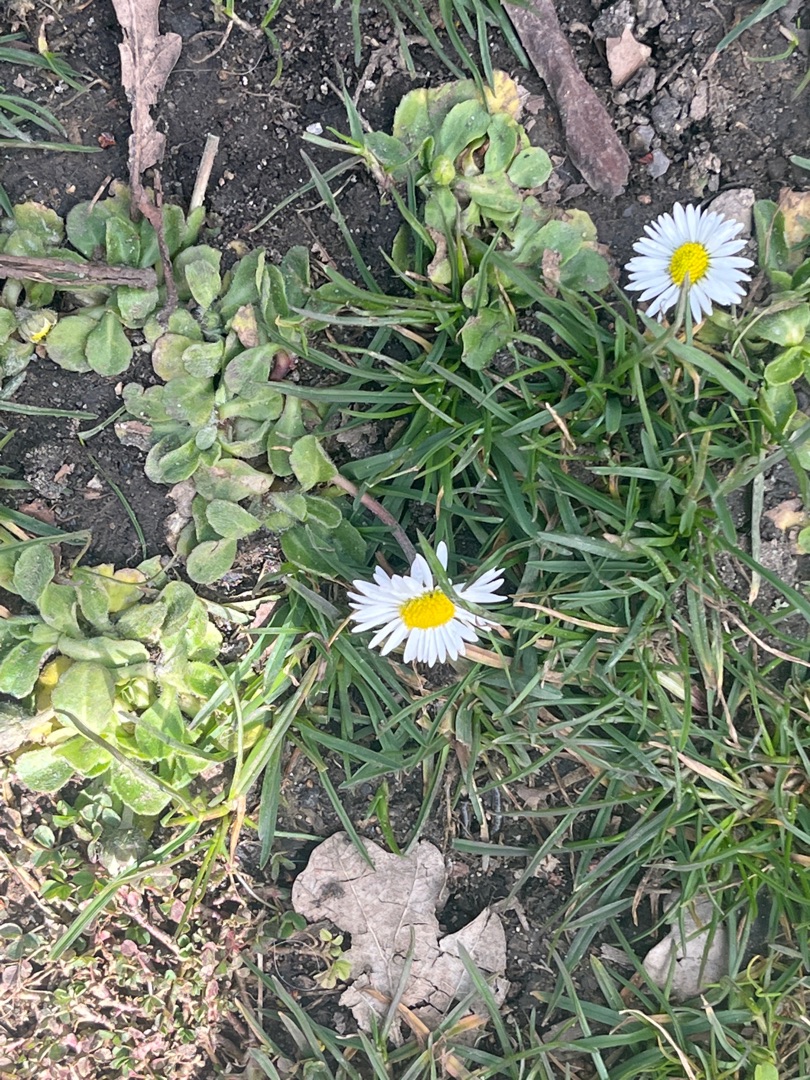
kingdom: Plantae
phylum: Tracheophyta
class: Magnoliopsida
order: Asterales
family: Asteraceae
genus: Bellis
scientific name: Bellis perennis
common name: Tusindfryd
